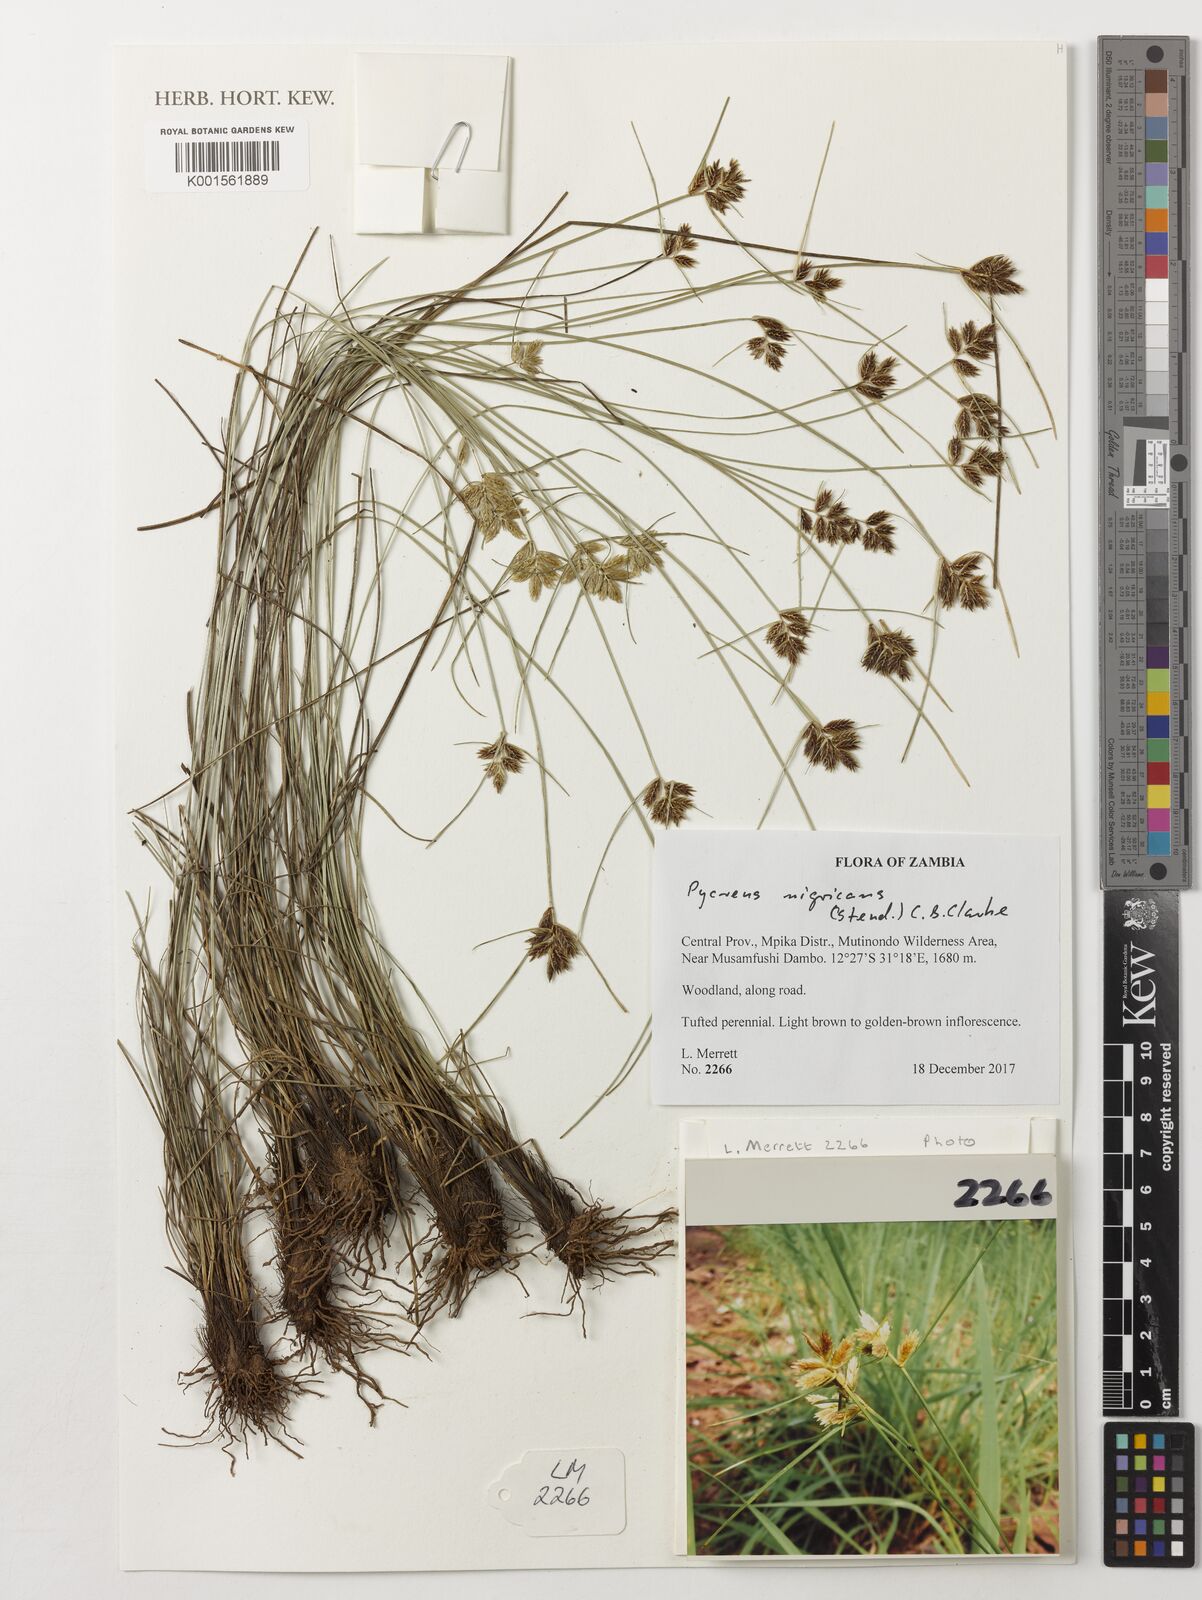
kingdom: Plantae
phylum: Tracheophyta
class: Liliopsida
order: Poales
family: Cyperaceae
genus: Cyperus
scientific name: Cyperus nigricans
